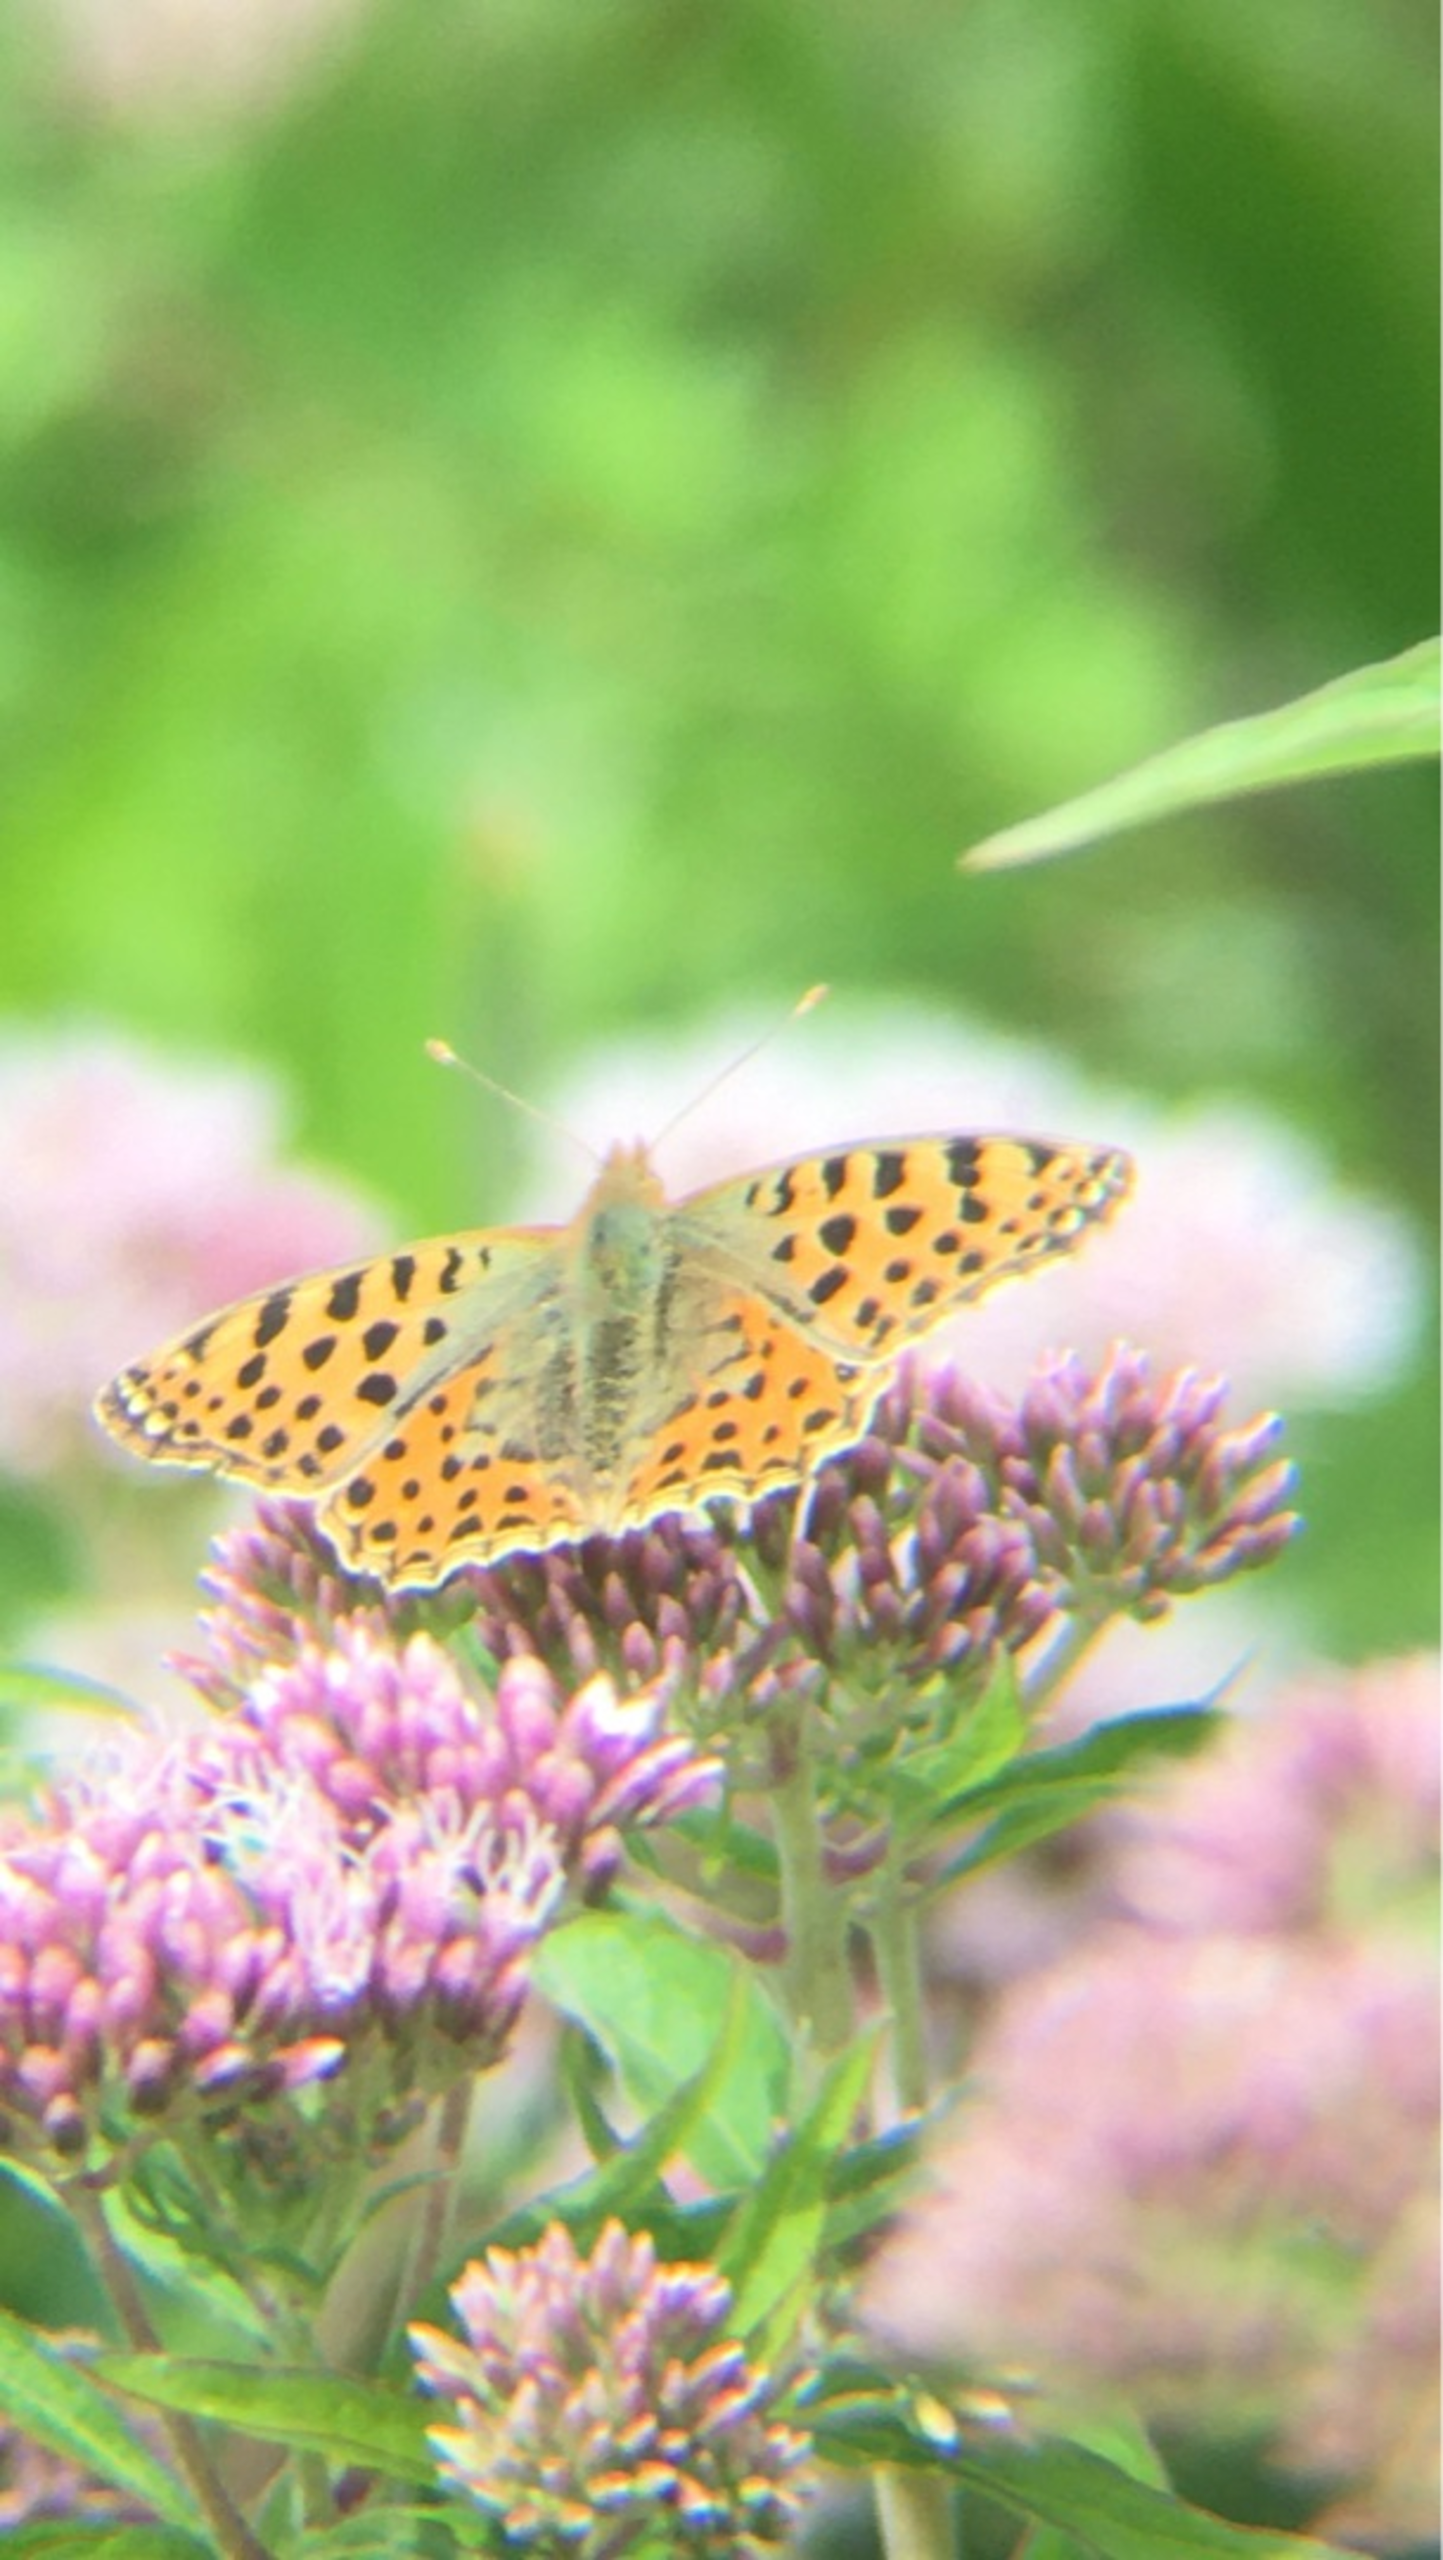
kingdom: Animalia
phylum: Arthropoda
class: Insecta
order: Lepidoptera
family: Nymphalidae
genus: Issoria
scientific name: Issoria lathonia
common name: Storplettet perlemorsommerfugl
